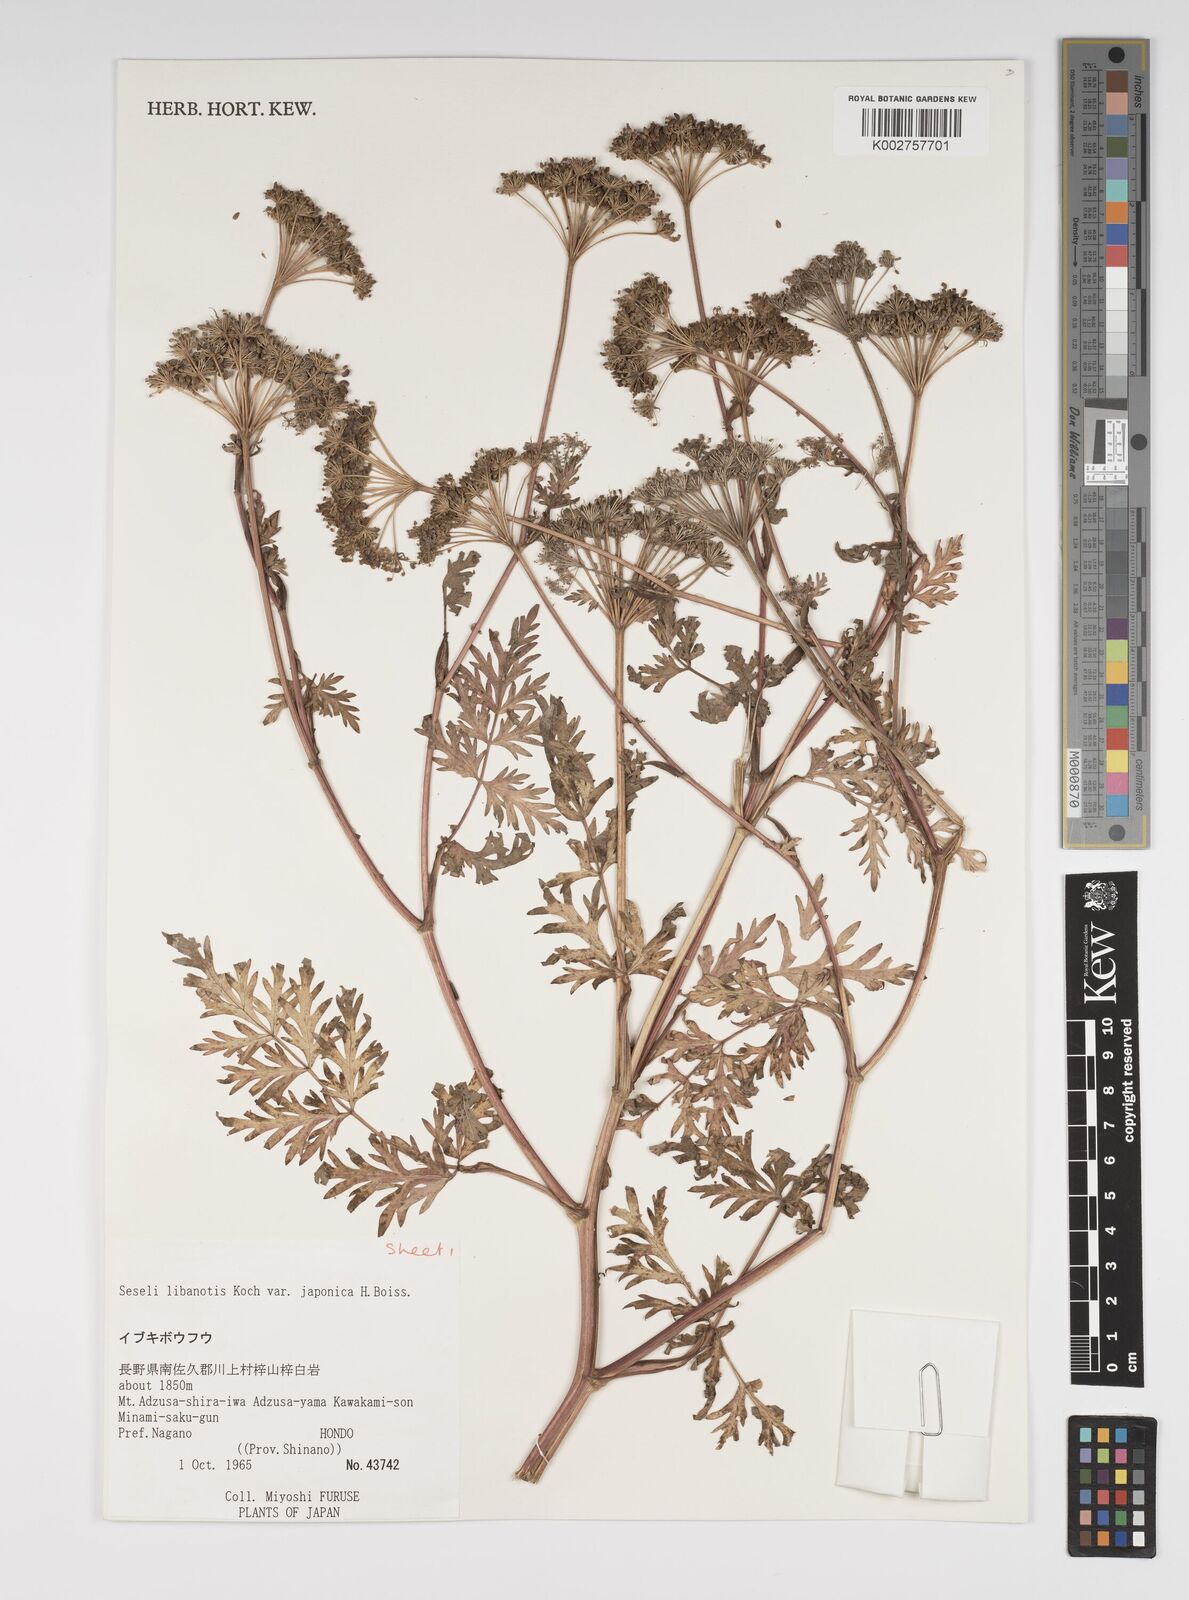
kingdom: Plantae
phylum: Tracheophyta
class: Magnoliopsida
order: Apiales
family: Apiaceae
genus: Seseli
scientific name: Seseli libanotis
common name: Mooncarrot
